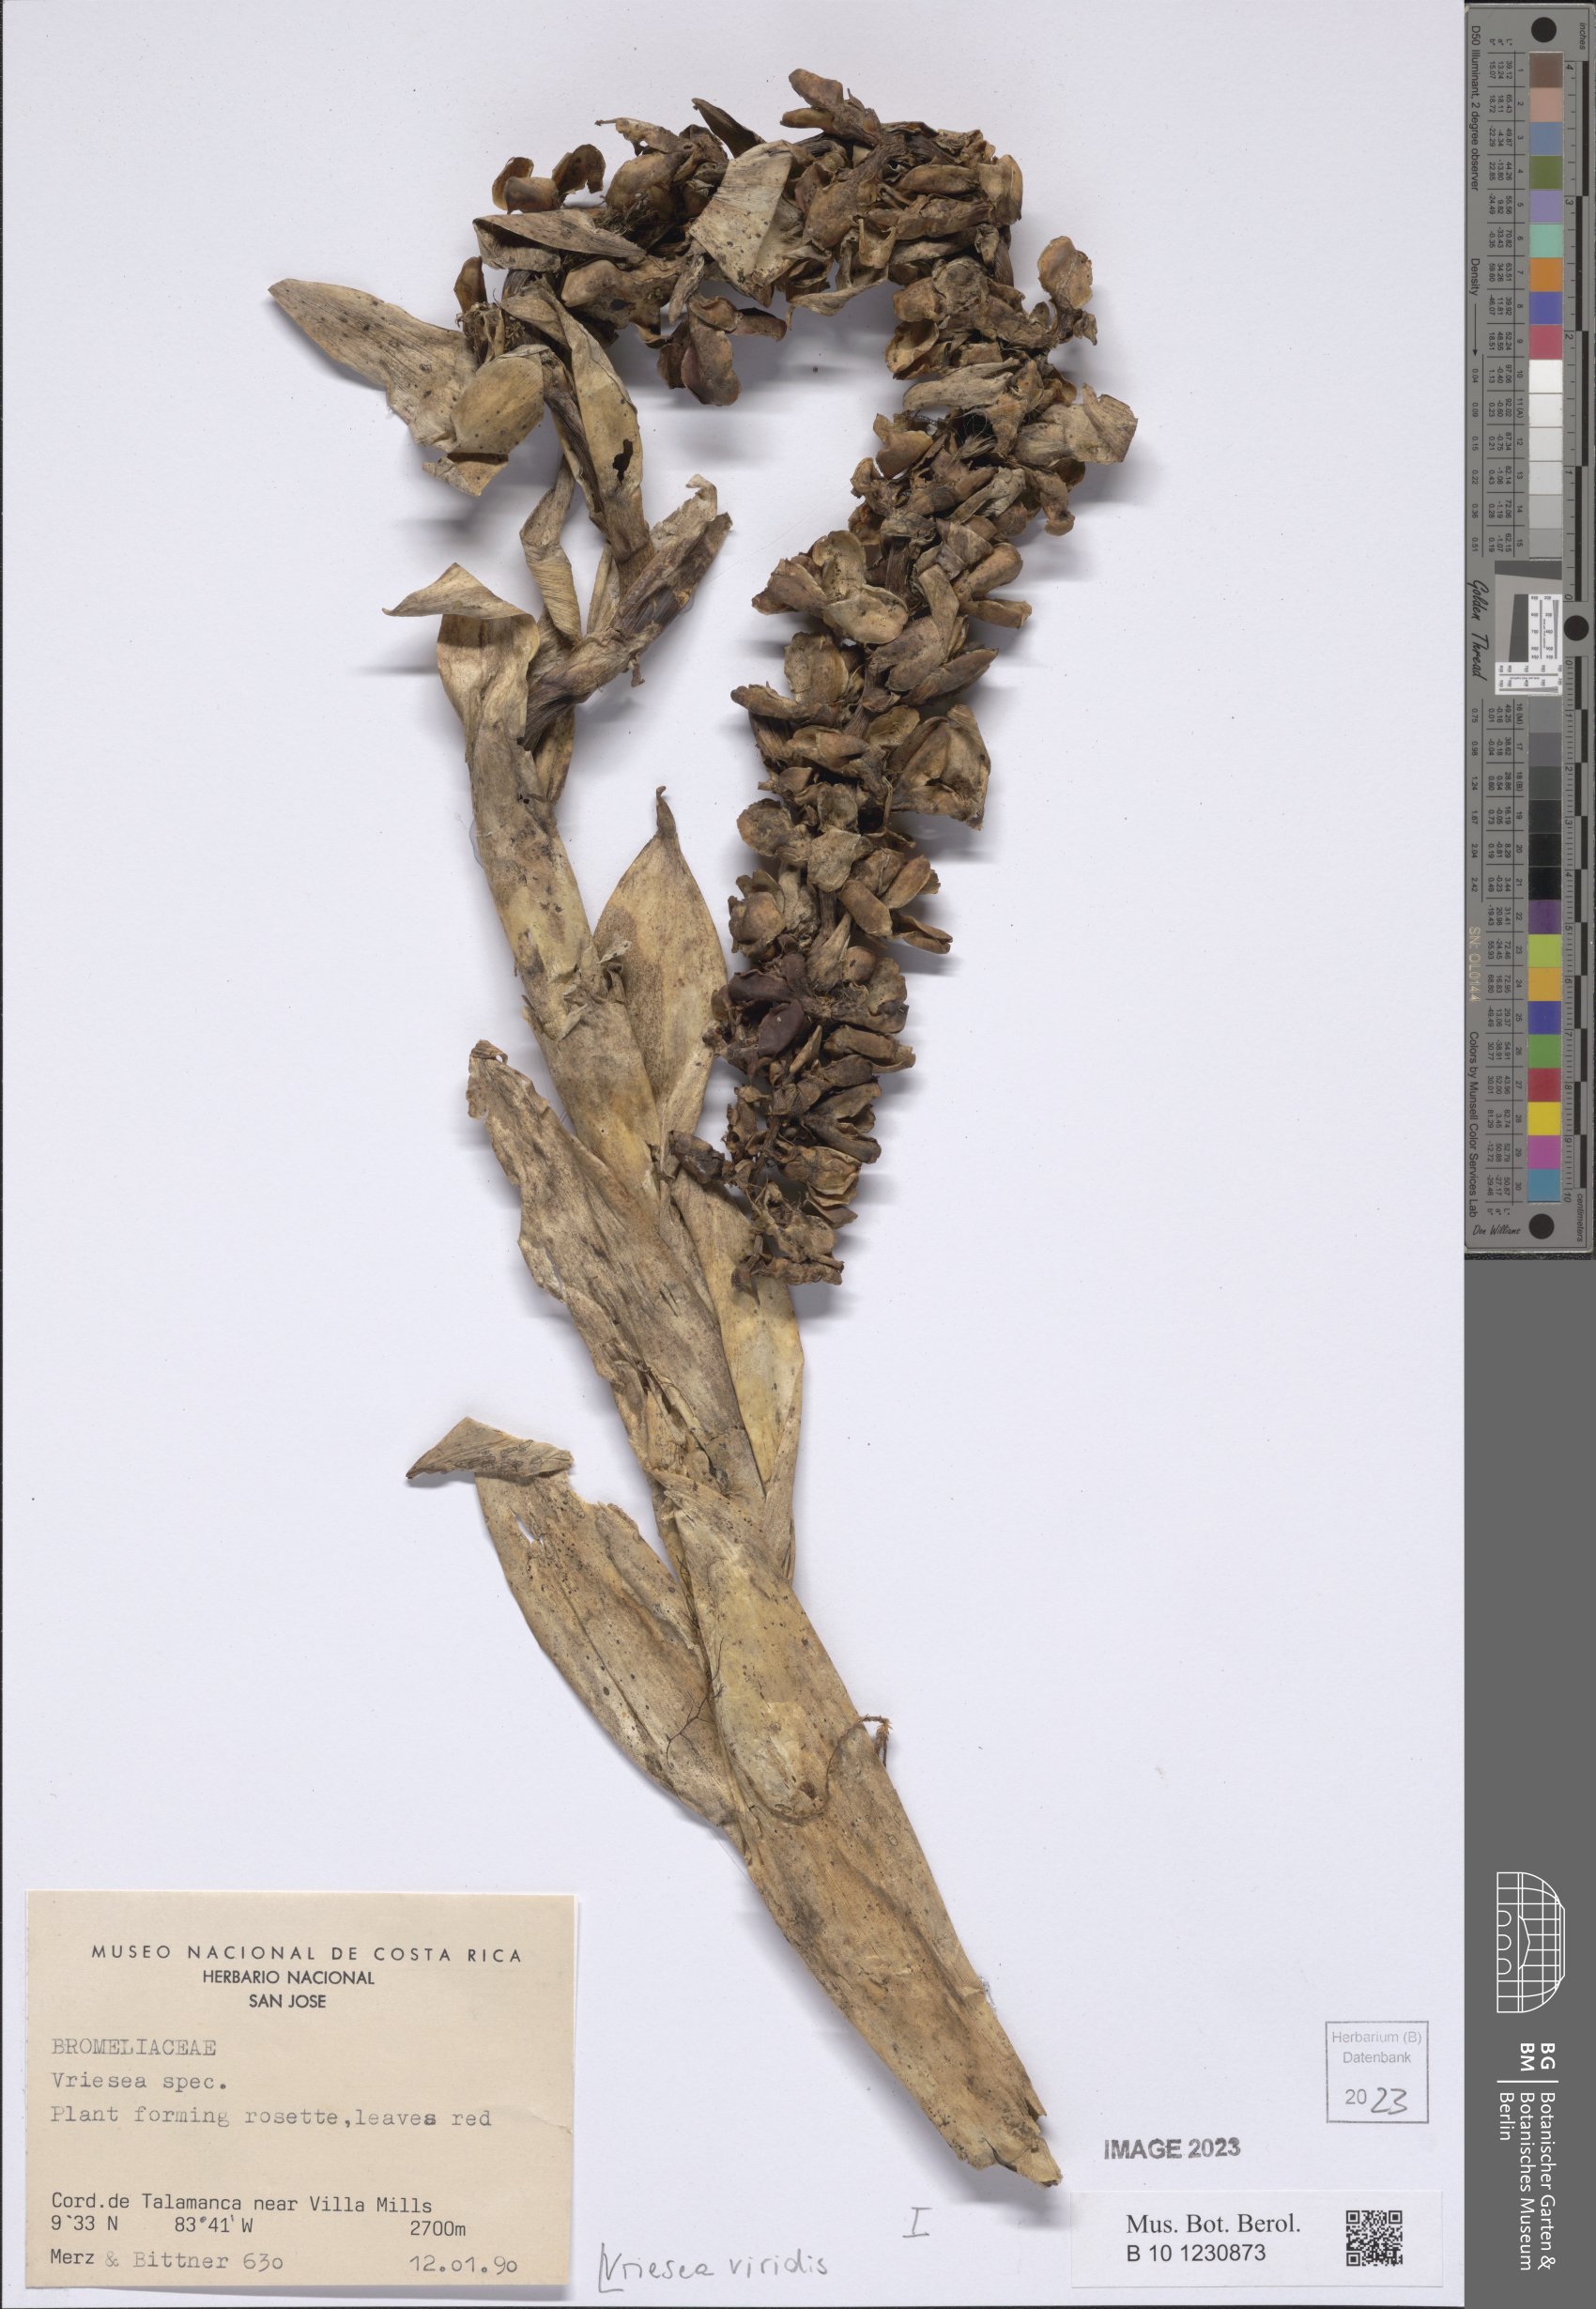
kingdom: Plantae
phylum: Tracheophyta
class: Liliopsida
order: Poales
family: Bromeliaceae
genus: Werauhia
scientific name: Werauhia viridis
